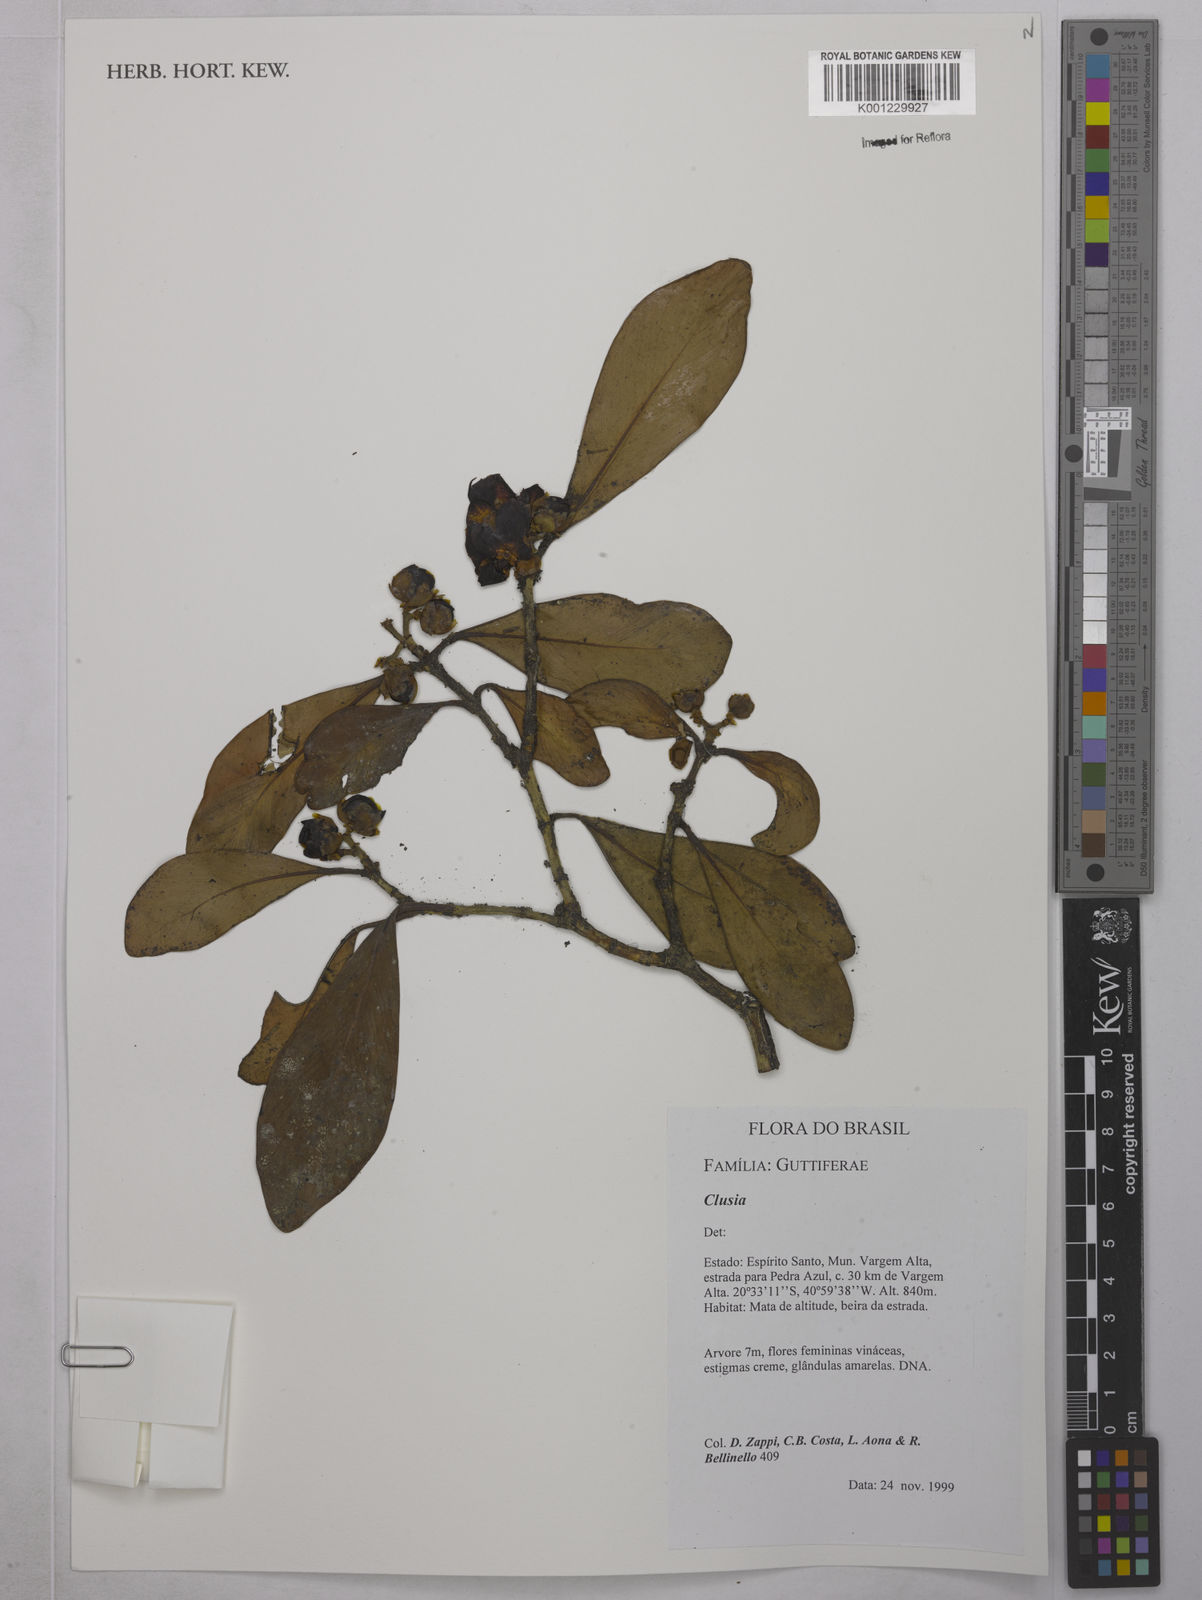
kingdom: Plantae
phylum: Tracheophyta
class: Magnoliopsida
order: Malpighiales
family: Clusiaceae
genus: Clusia
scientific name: Clusia
